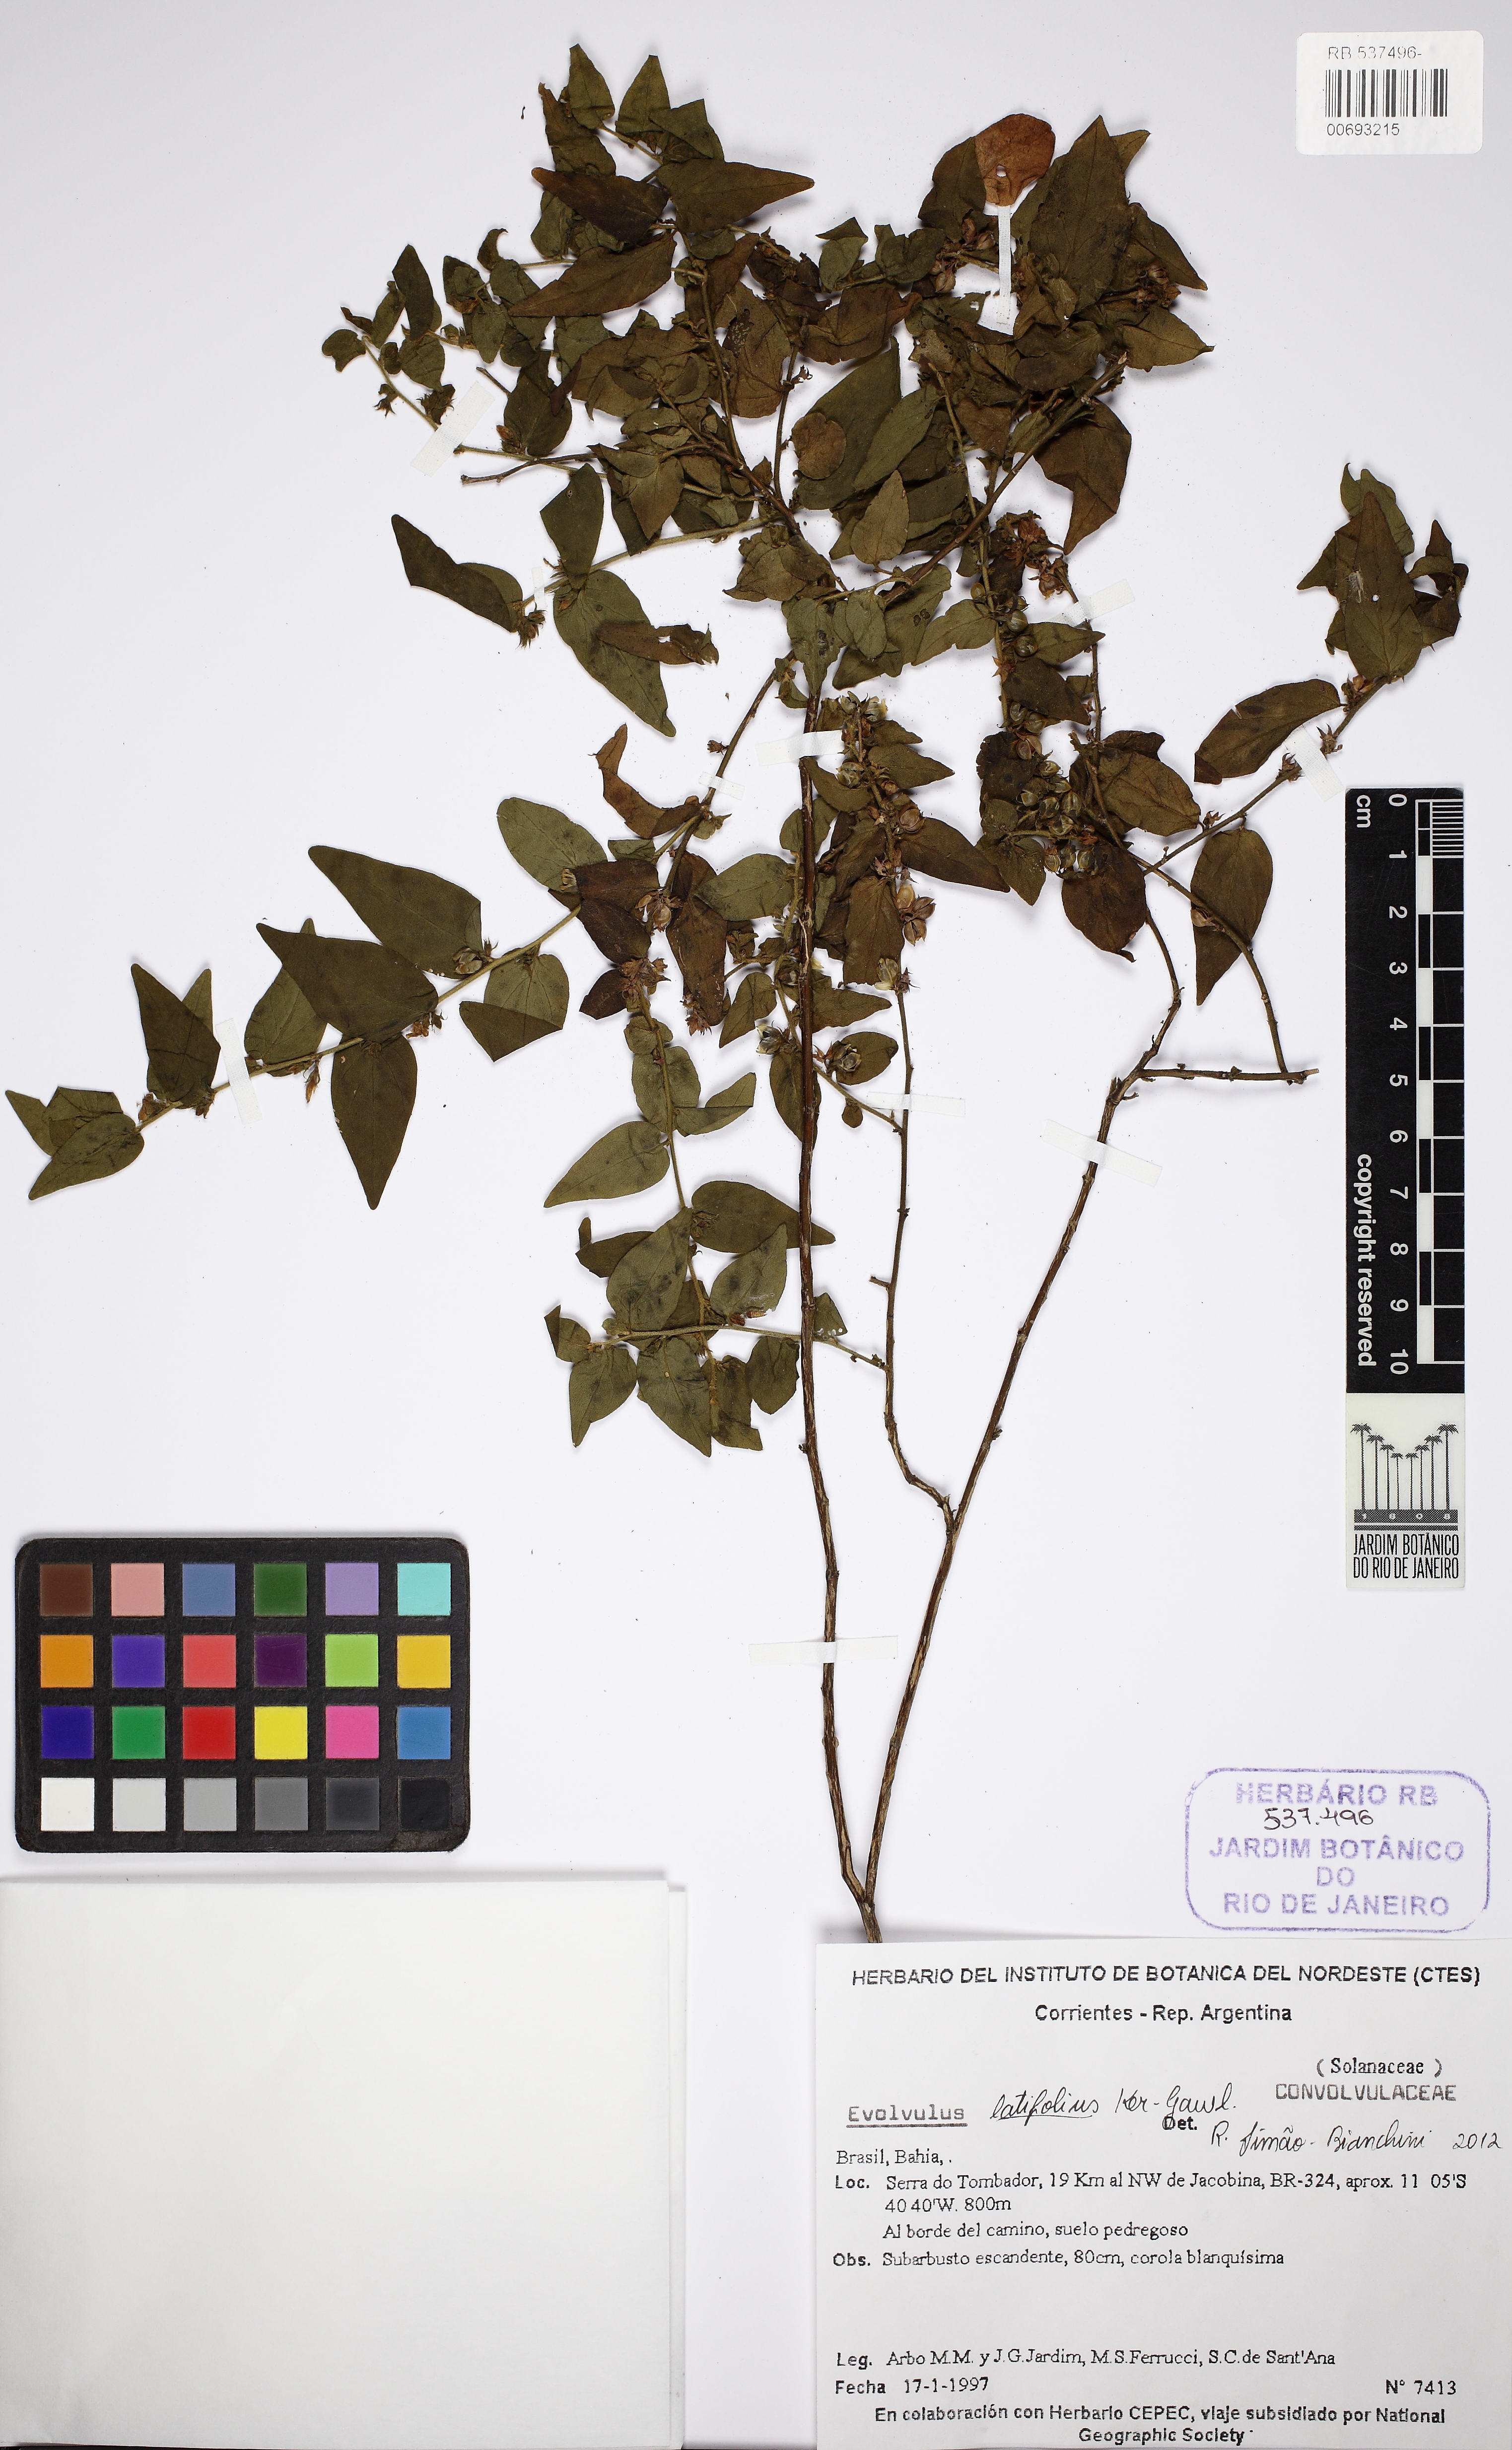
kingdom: Plantae
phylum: Tracheophyta
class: Magnoliopsida
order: Solanales
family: Convolvulaceae
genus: Evolvulus
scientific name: Evolvulus latifolius
